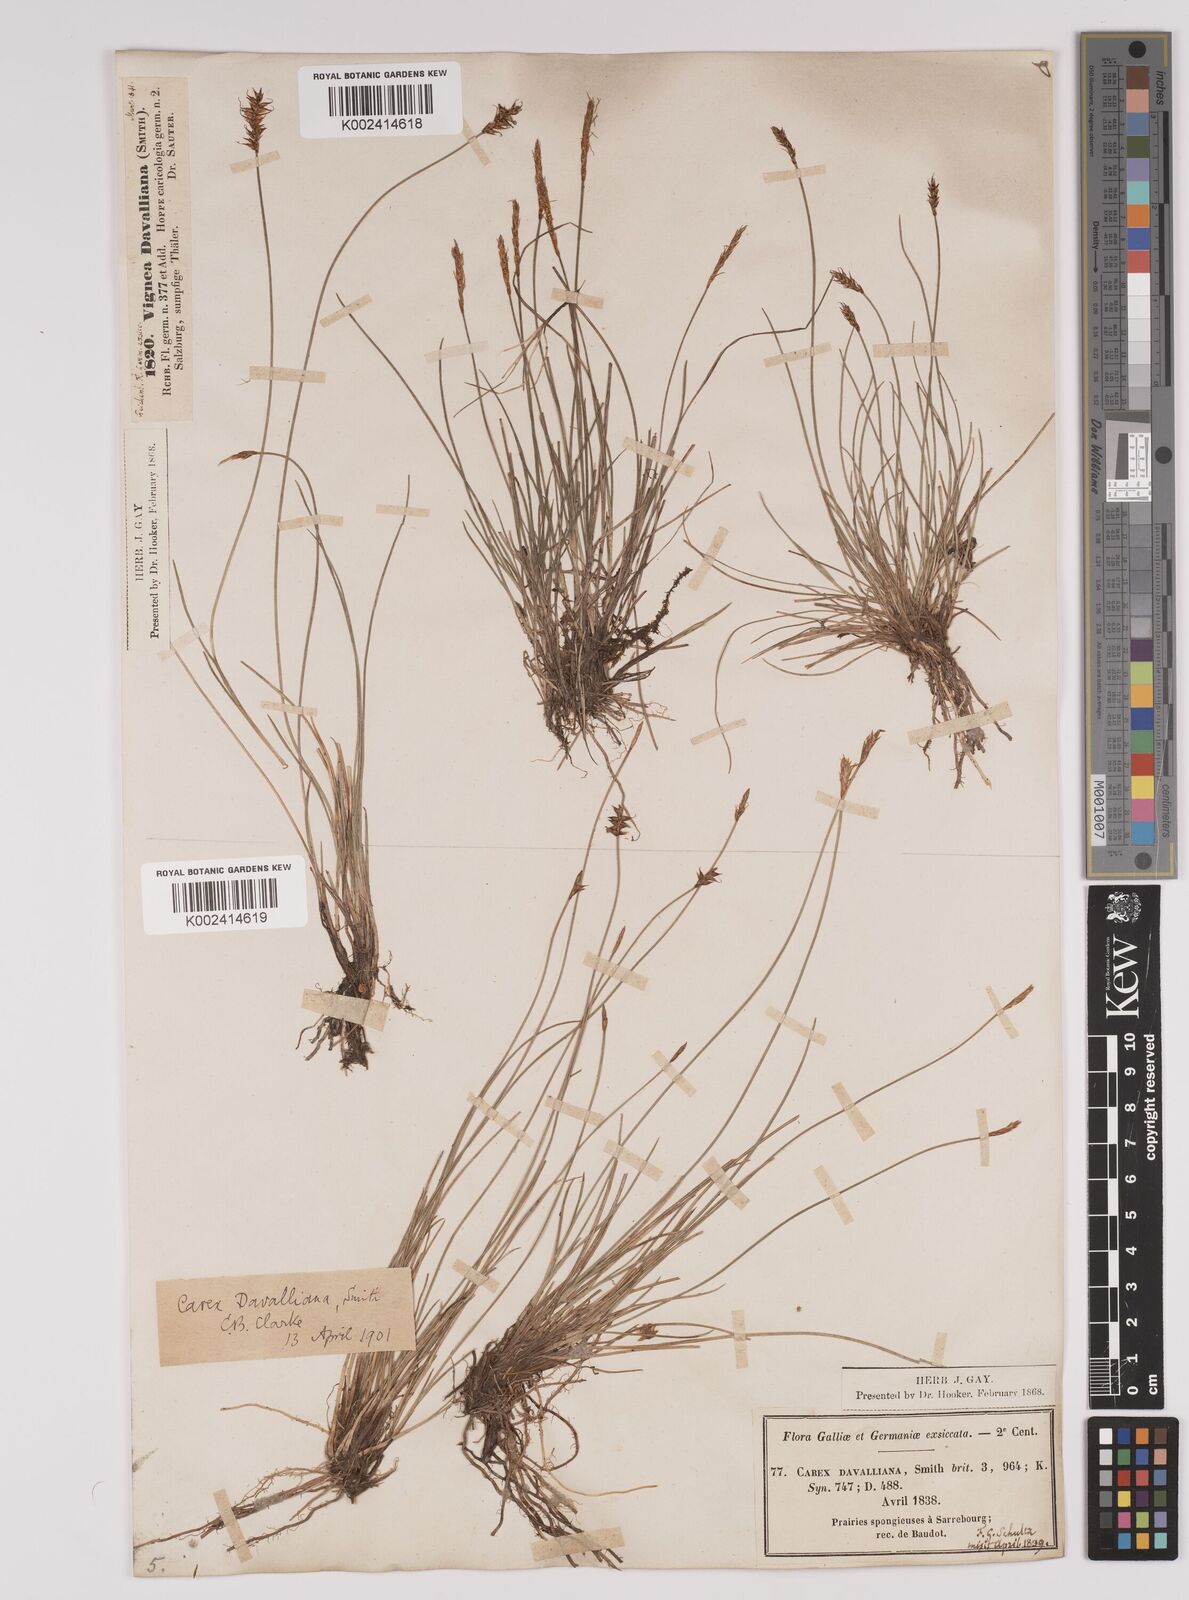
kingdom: Plantae
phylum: Tracheophyta
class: Liliopsida
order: Poales
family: Cyperaceae
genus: Carex
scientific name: Carex davalliana
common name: Davall's sedge
